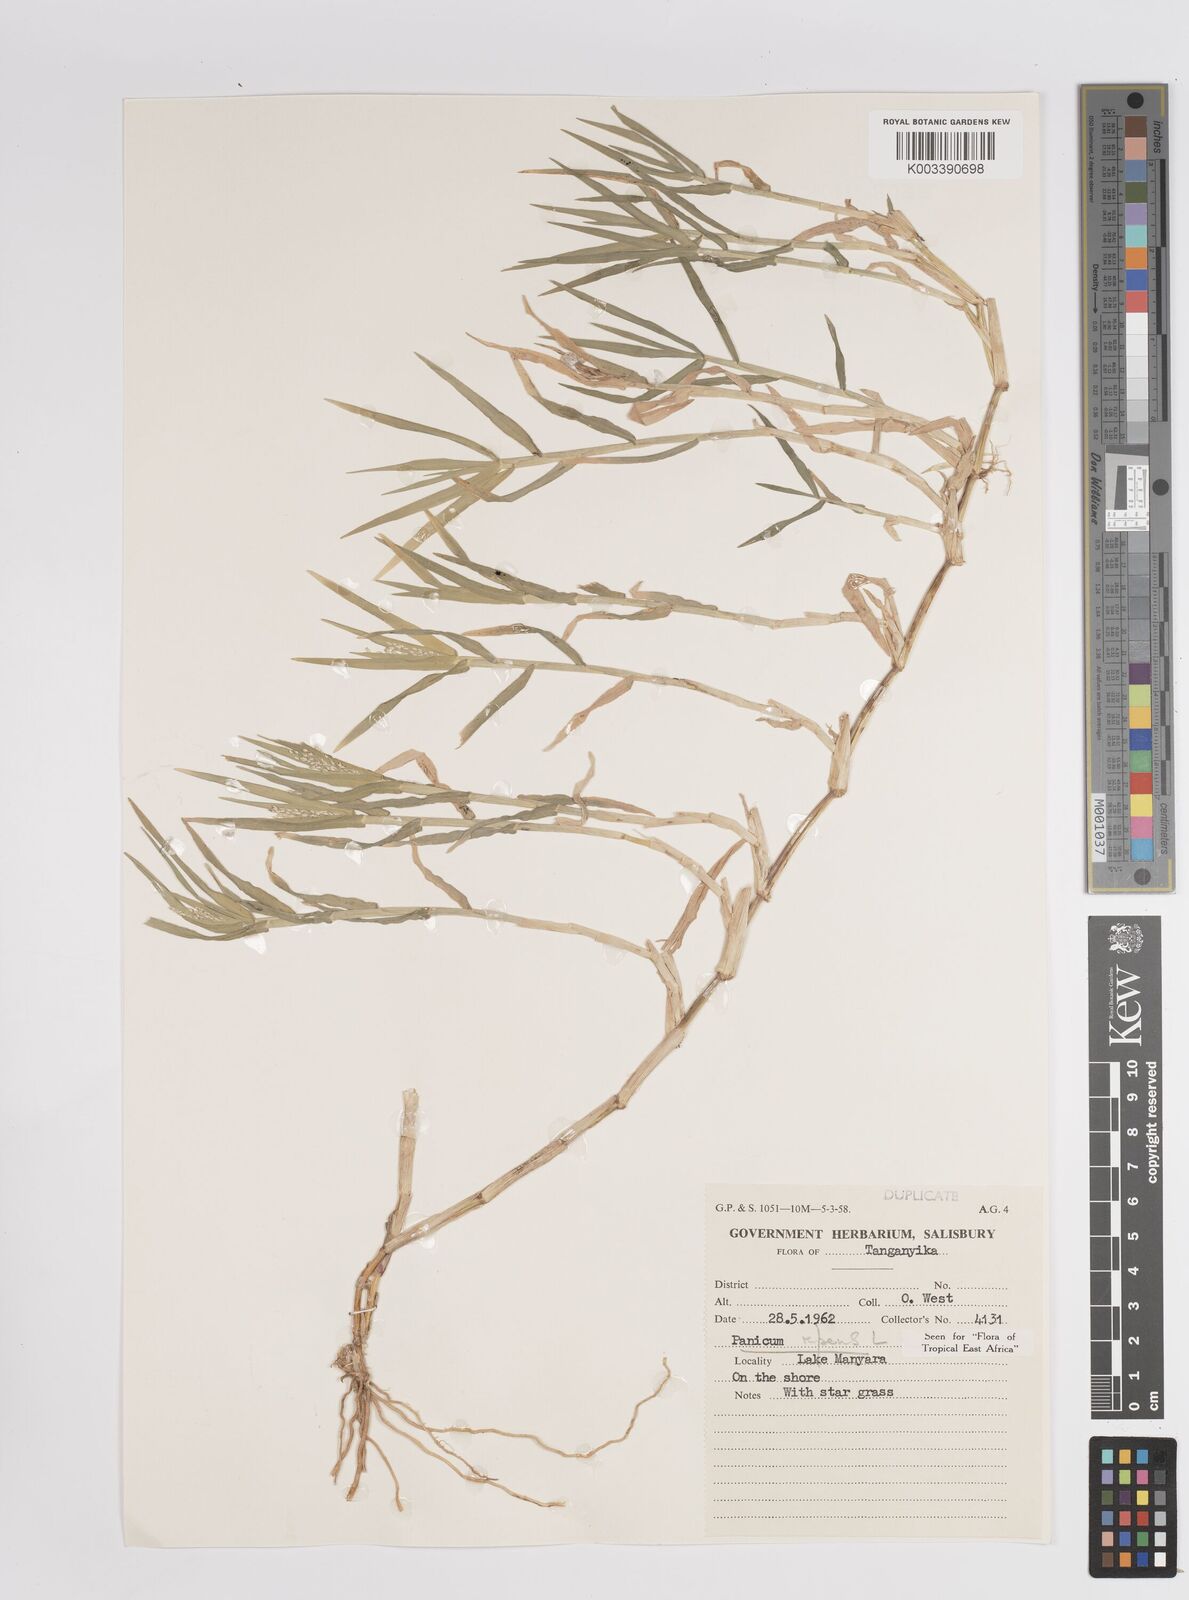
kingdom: Plantae
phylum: Tracheophyta
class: Liliopsida
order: Poales
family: Poaceae
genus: Panicum
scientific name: Panicum hygrocharis
